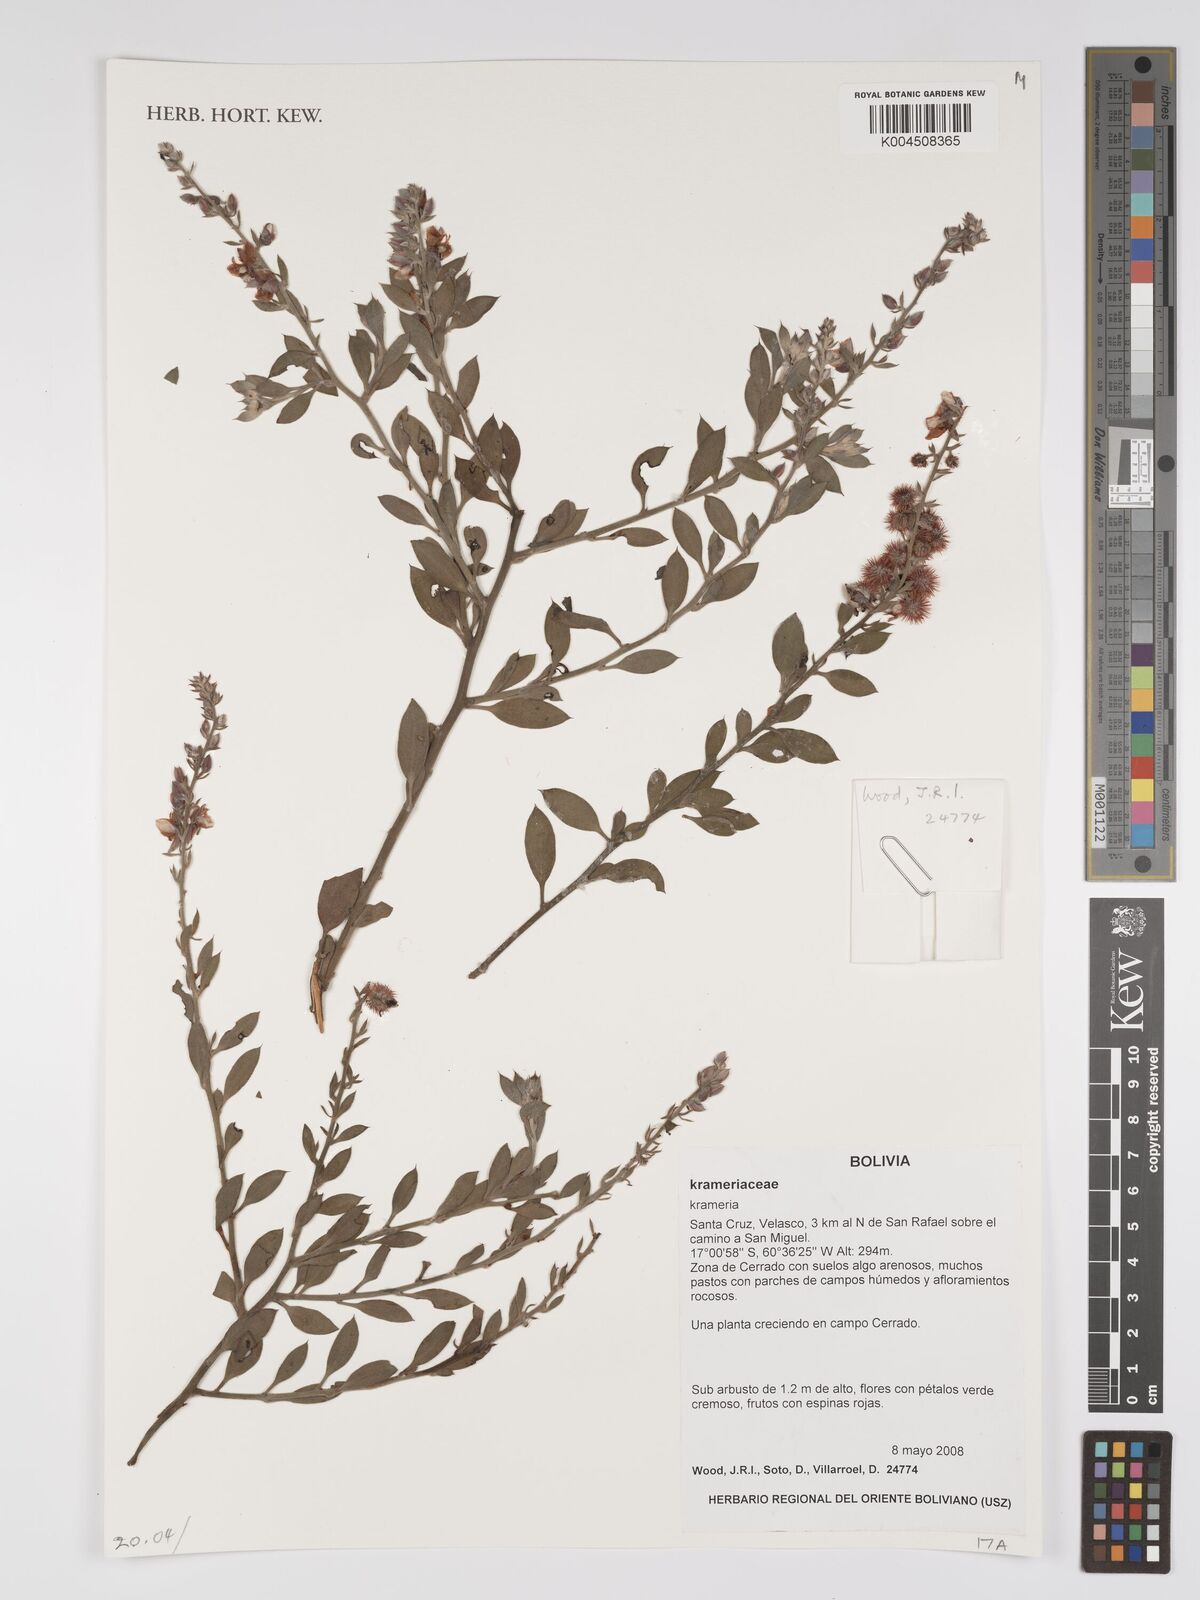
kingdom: Plantae
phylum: Tracheophyta
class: Magnoliopsida
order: Zygophyllales
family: Krameriaceae
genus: Krameria
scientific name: Krameria
